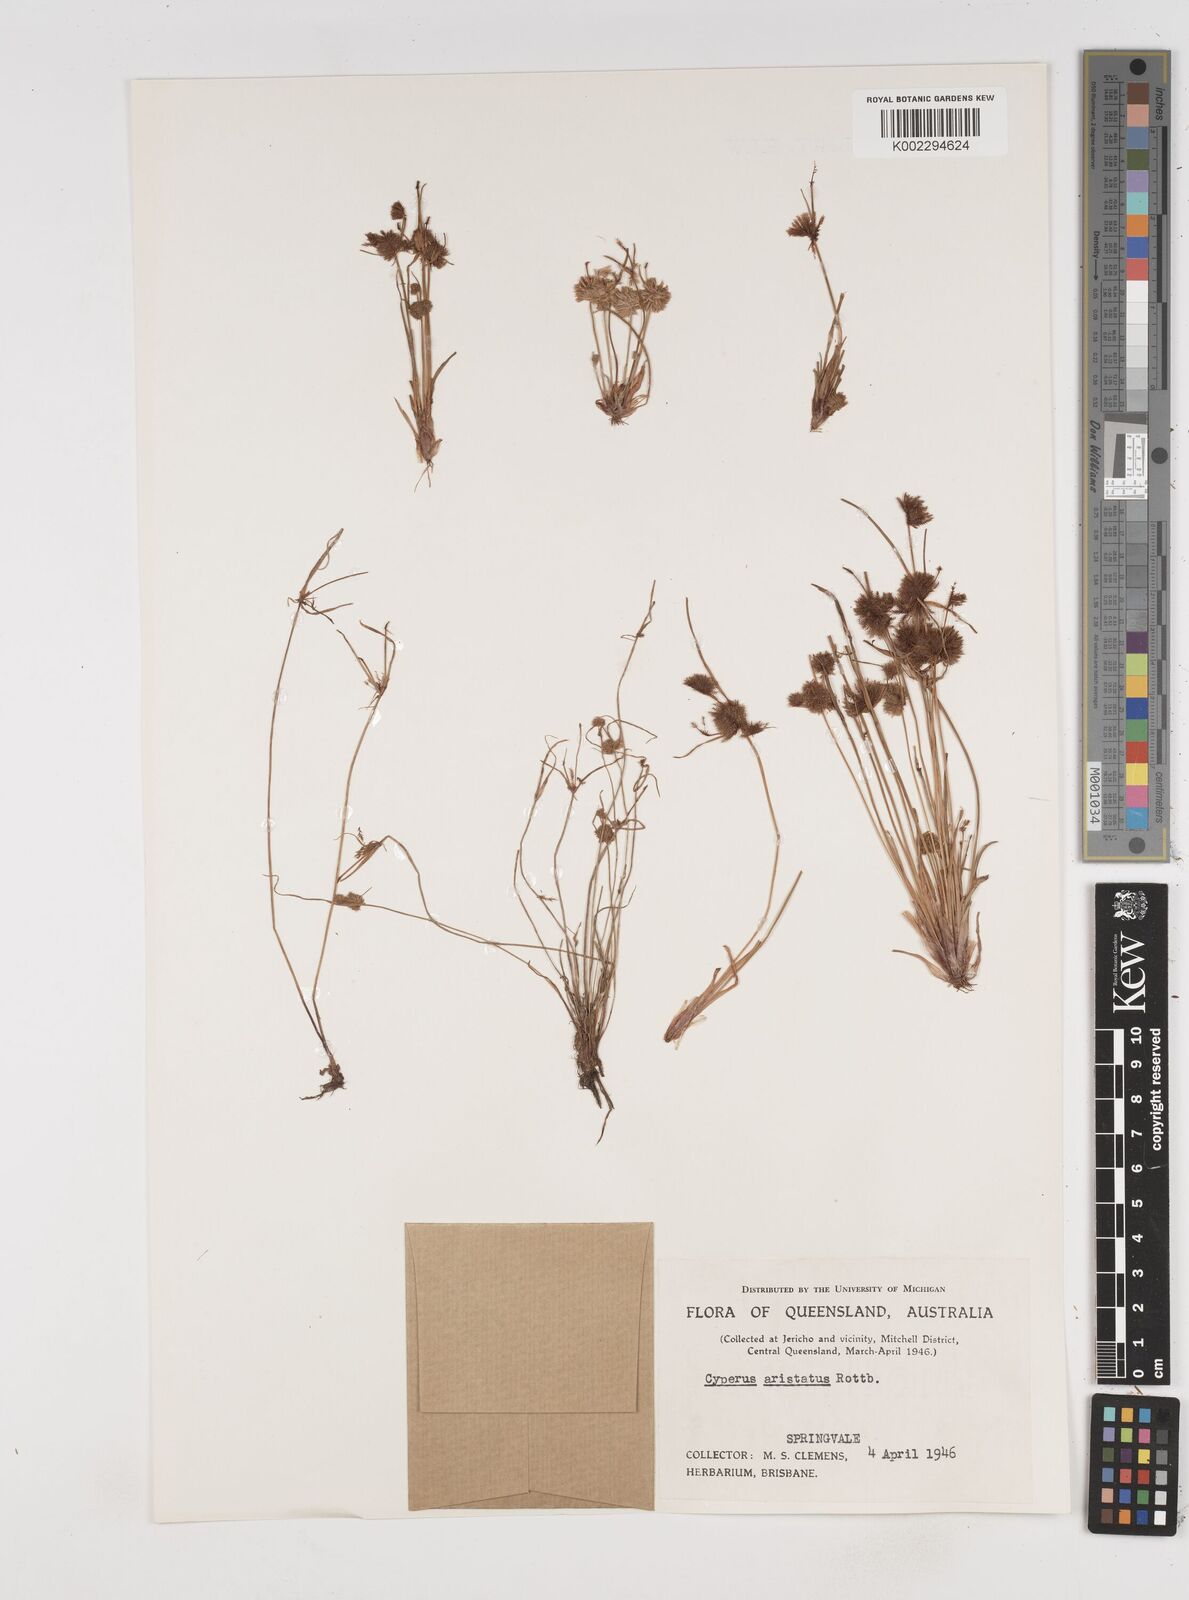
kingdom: Plantae
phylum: Tracheophyta
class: Liliopsida
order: Poales
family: Cyperaceae
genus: Cyperus
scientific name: Cyperus squarrosus
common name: Awned cyperus
